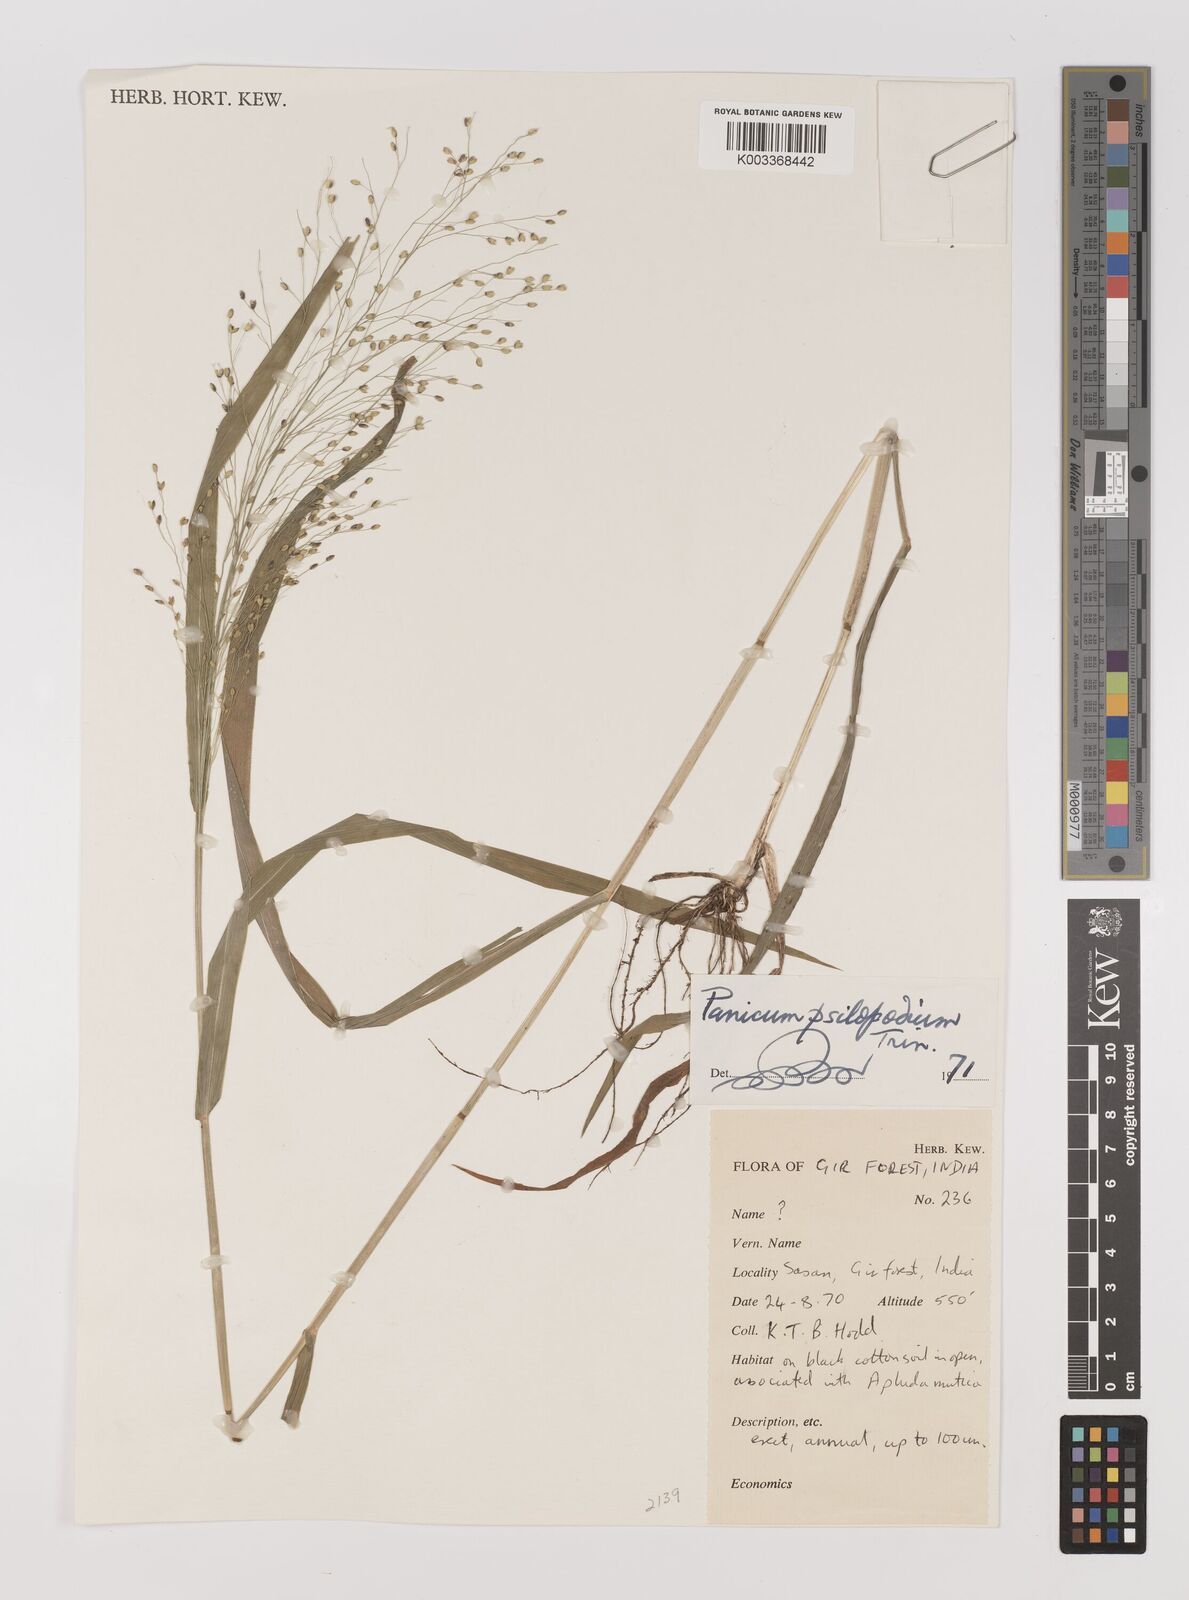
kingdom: Plantae
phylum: Tracheophyta
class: Liliopsida
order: Poales
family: Poaceae
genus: Panicum
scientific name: Panicum sumatrense
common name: Little millet
